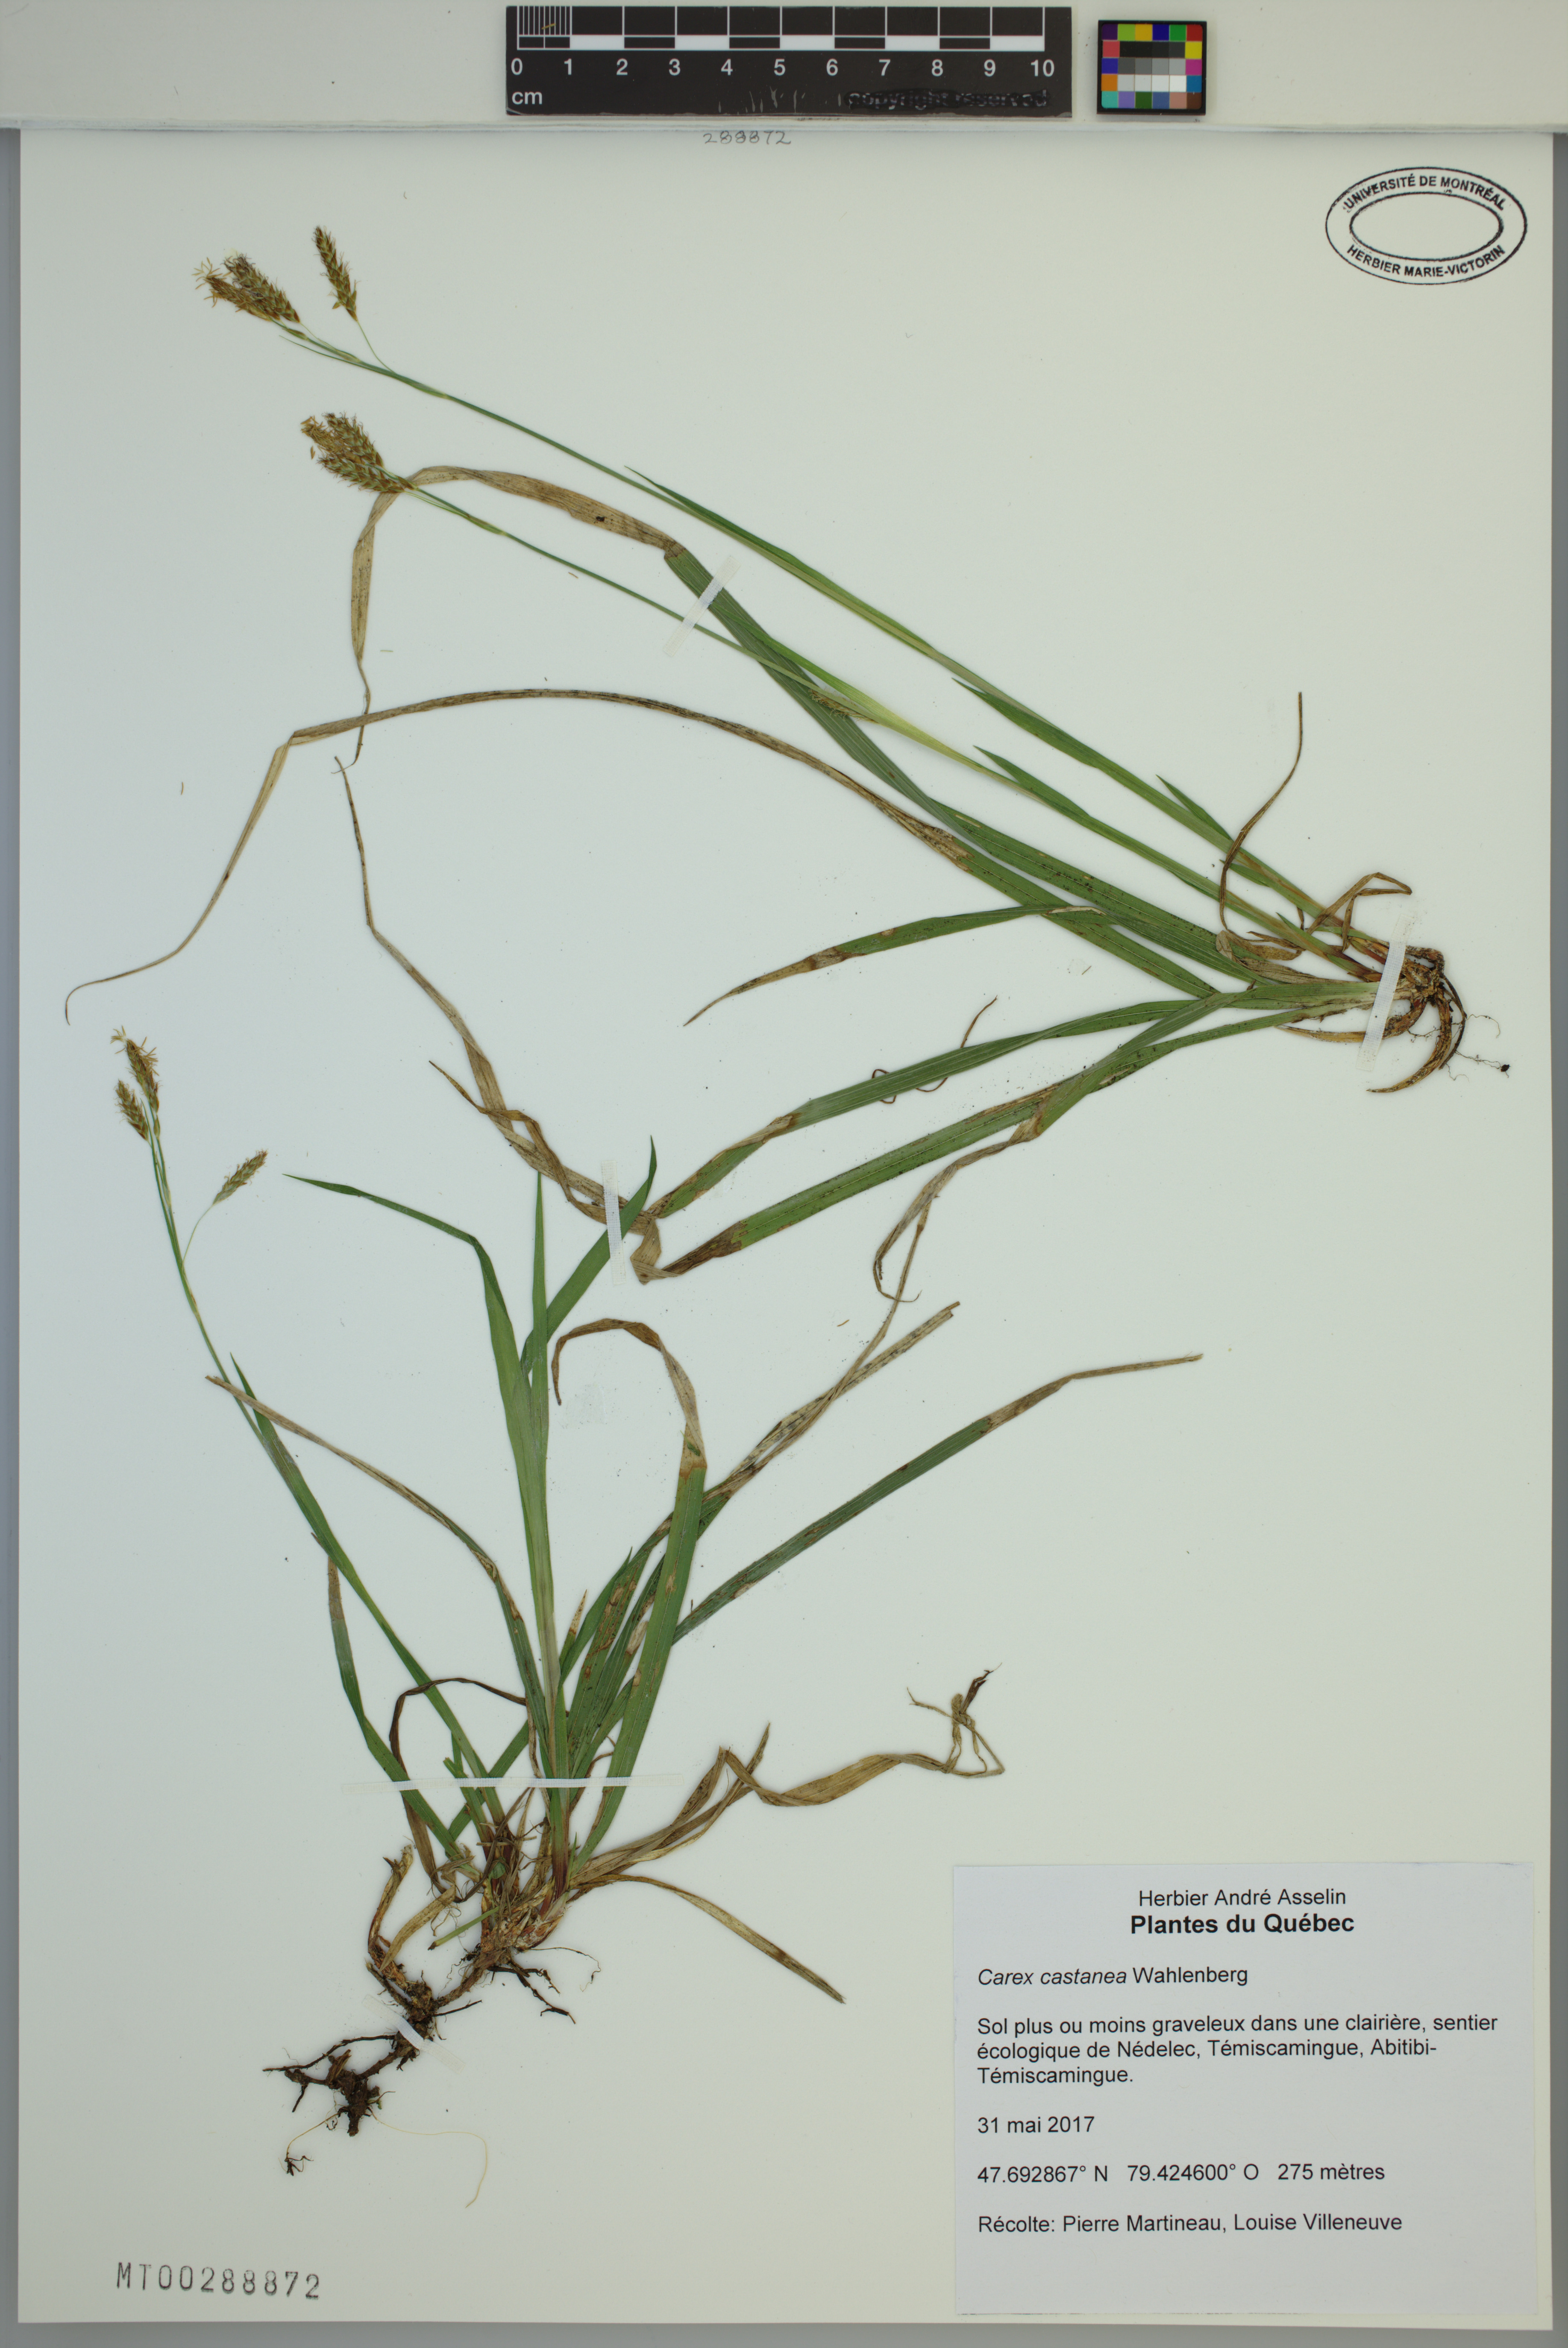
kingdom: Plantae
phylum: Tracheophyta
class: Liliopsida
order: Poales
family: Cyperaceae
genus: Carex
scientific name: Carex castanea
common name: Chestnut sedge
